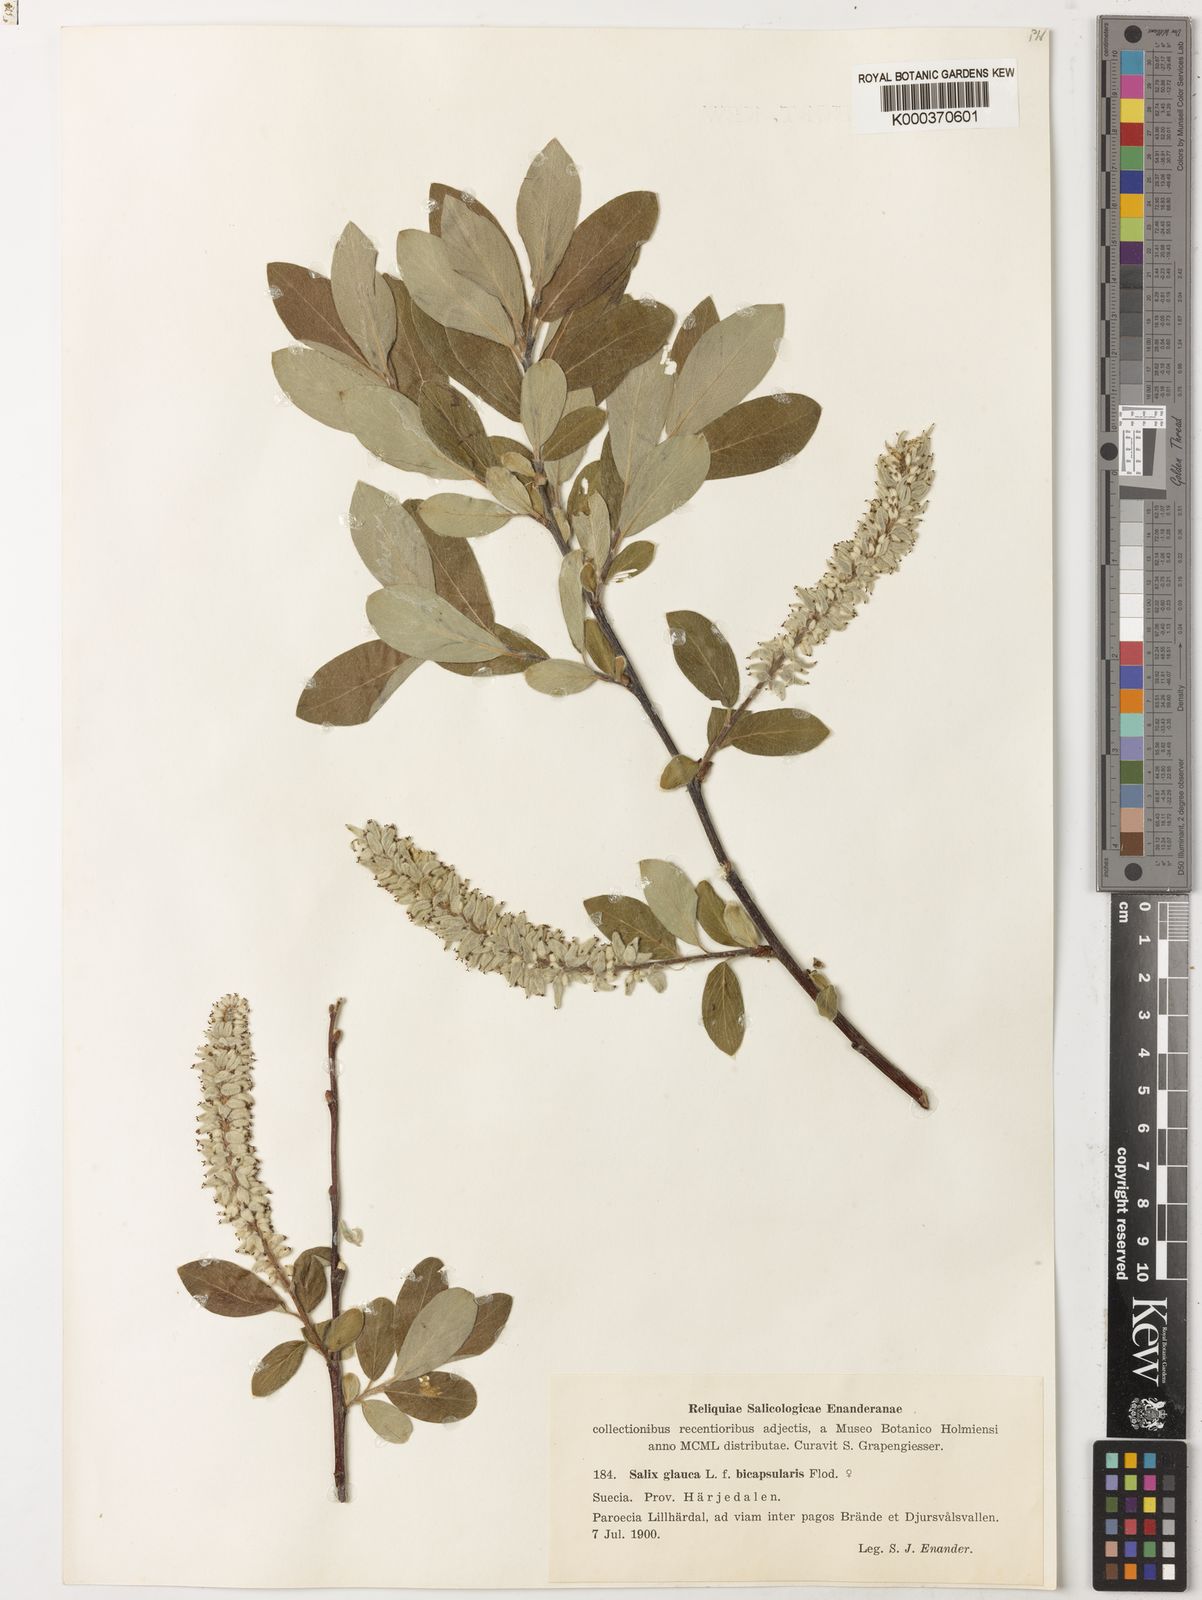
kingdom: Plantae
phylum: Tracheophyta
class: Magnoliopsida
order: Malpighiales
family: Salicaceae
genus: Salix
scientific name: Salix glauca
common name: Glaucous willow
